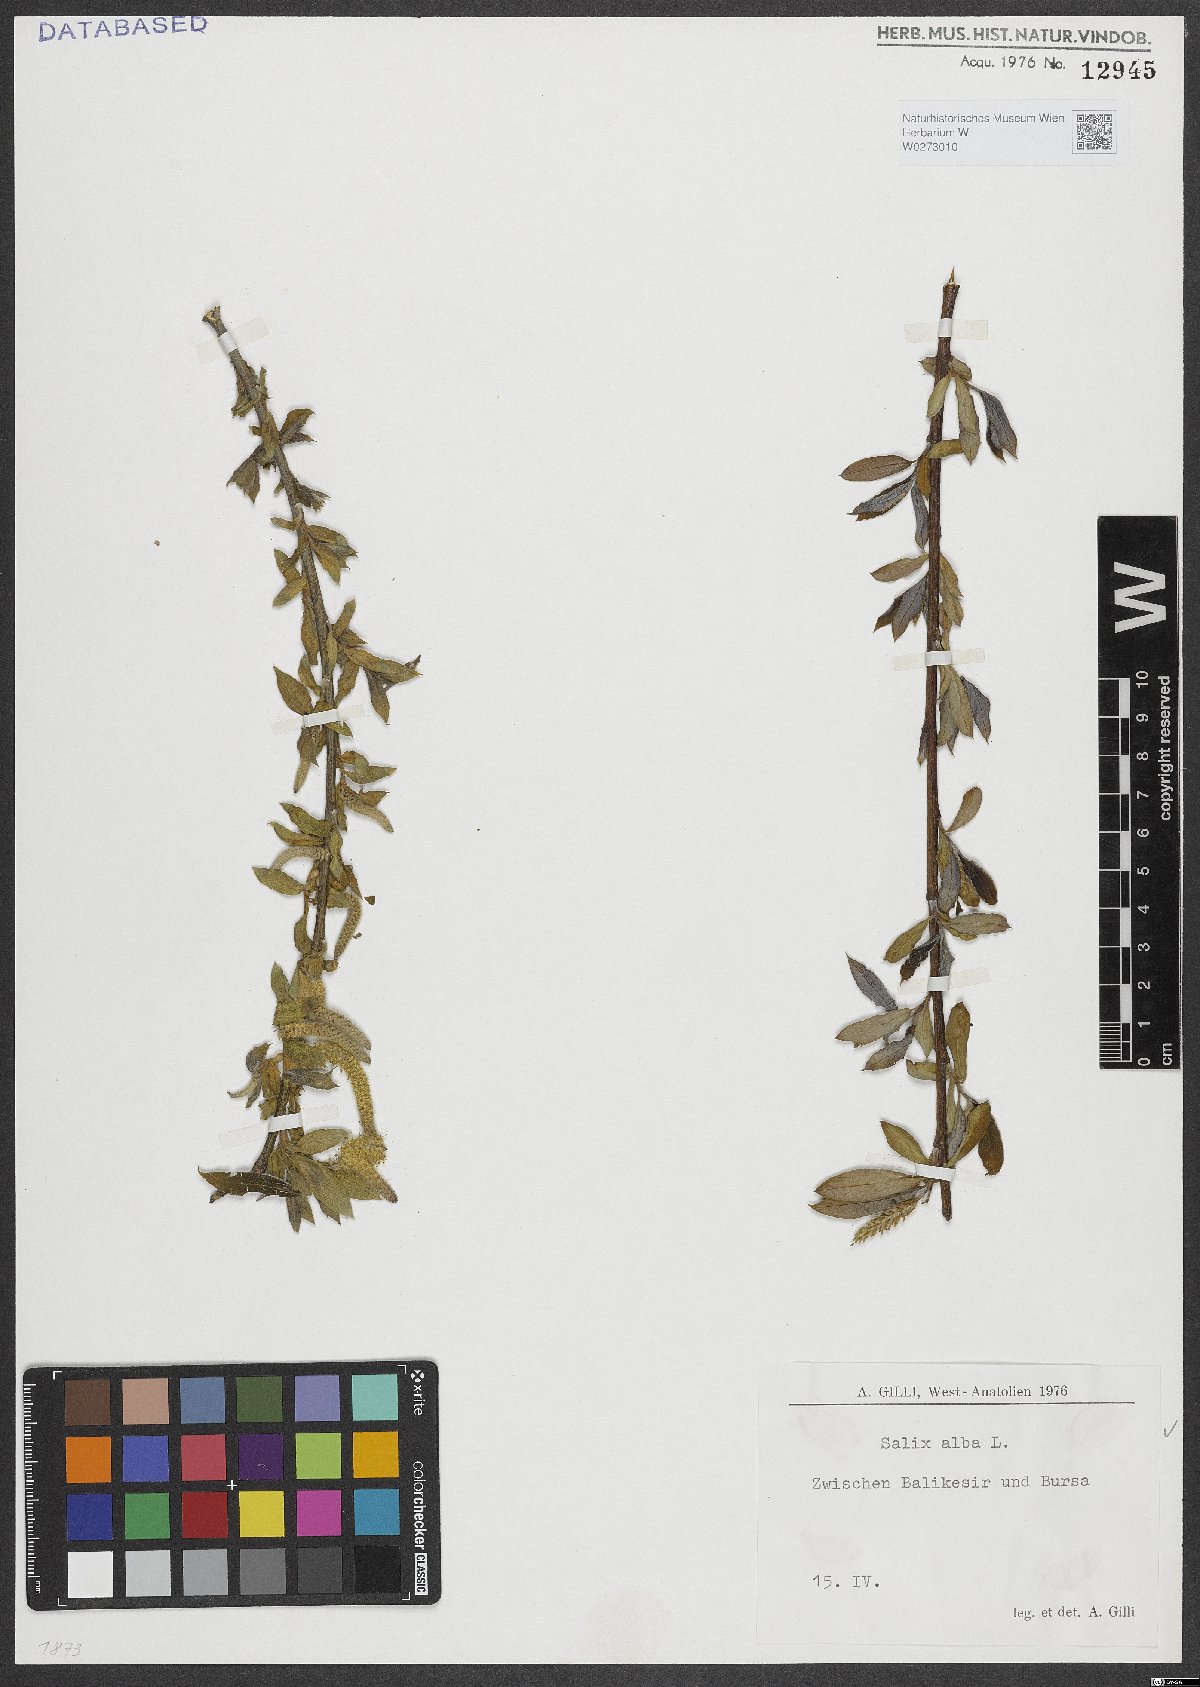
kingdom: Plantae
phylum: Tracheophyta
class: Magnoliopsida
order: Malpighiales
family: Salicaceae
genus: Salix
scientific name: Salix alba
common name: White willow
